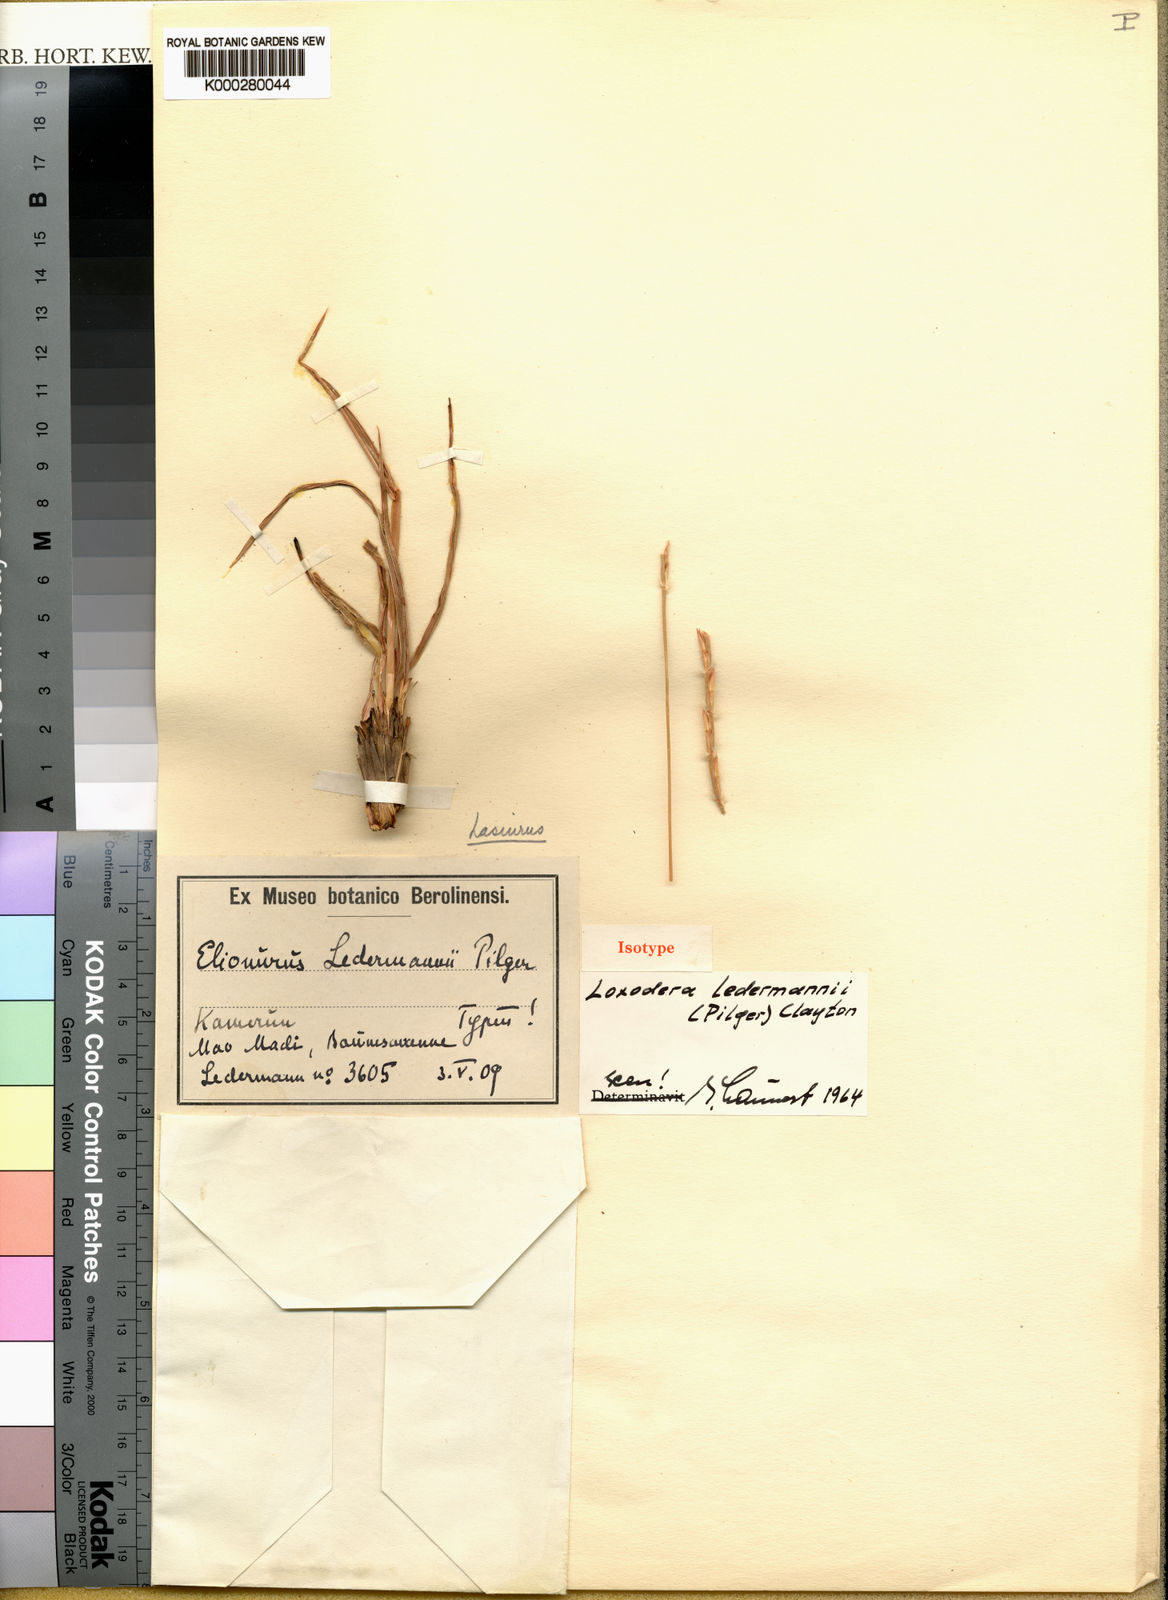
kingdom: Plantae
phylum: Tracheophyta
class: Liliopsida
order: Poales
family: Poaceae
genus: Loxodera
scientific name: Loxodera ledermannii
